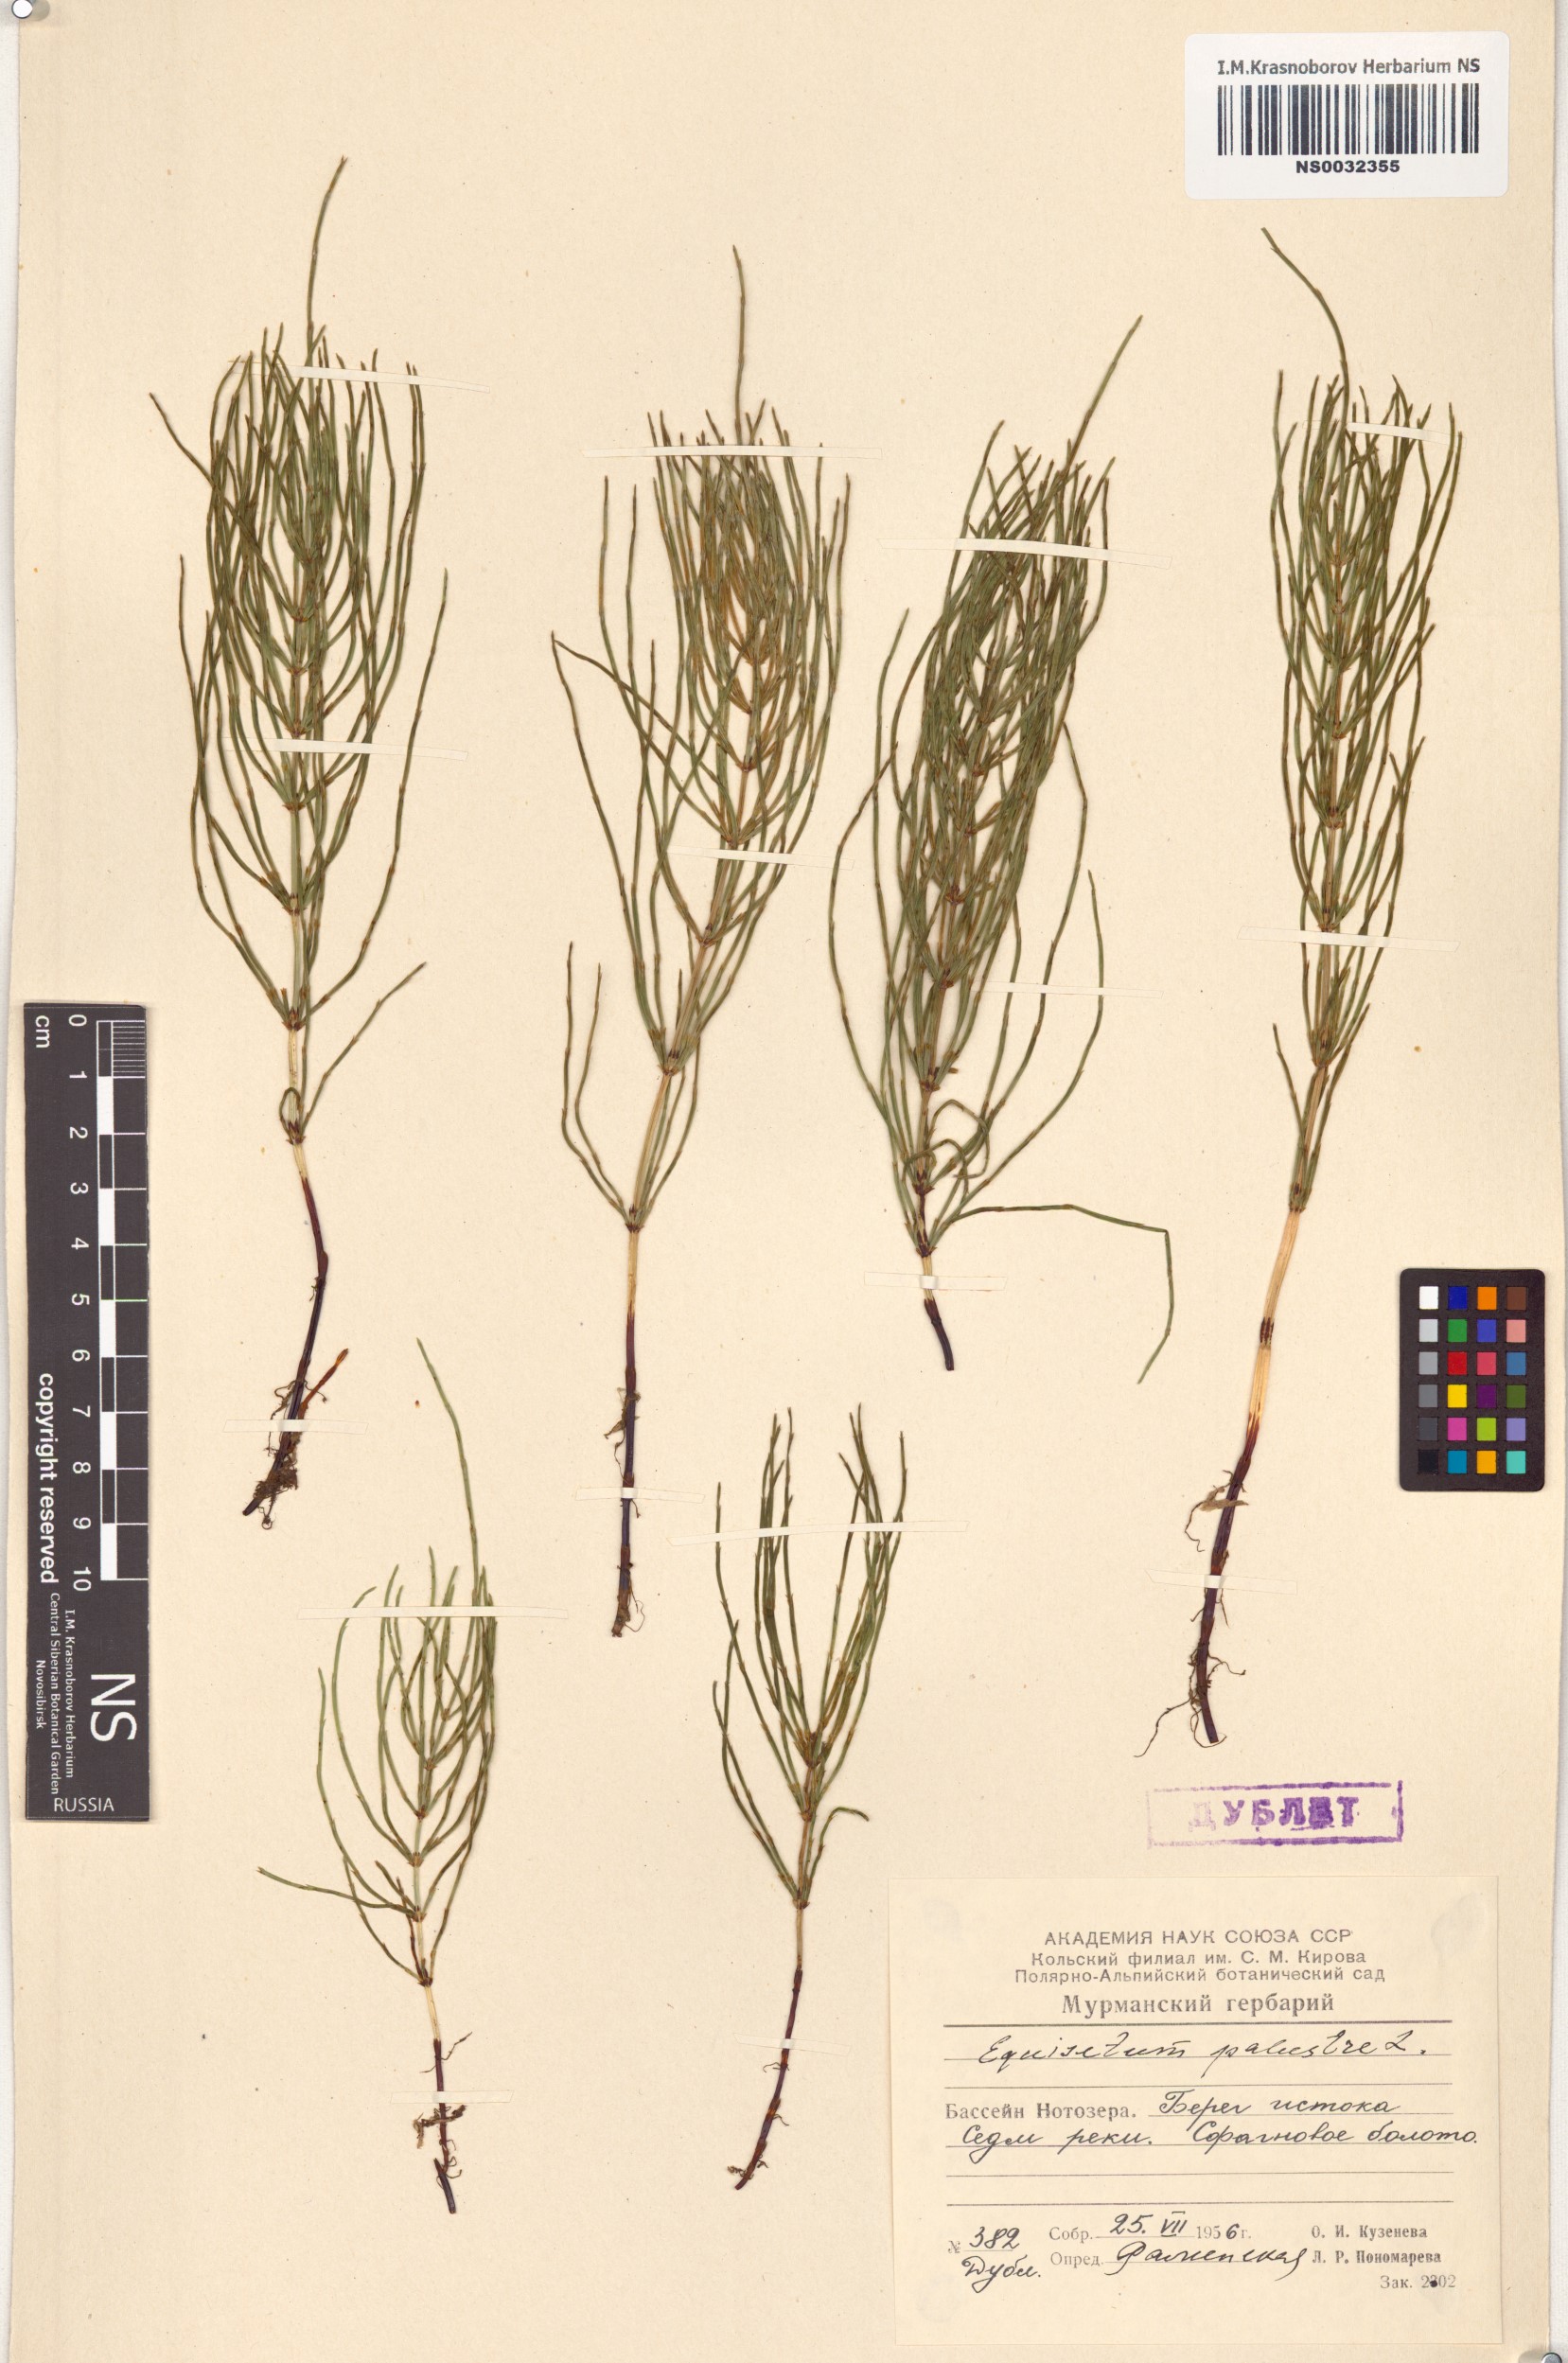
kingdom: Plantae
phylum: Tracheophyta
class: Polypodiopsida
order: Equisetales
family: Equisetaceae
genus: Equisetum
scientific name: Equisetum palustre
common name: Marsh horsetail
